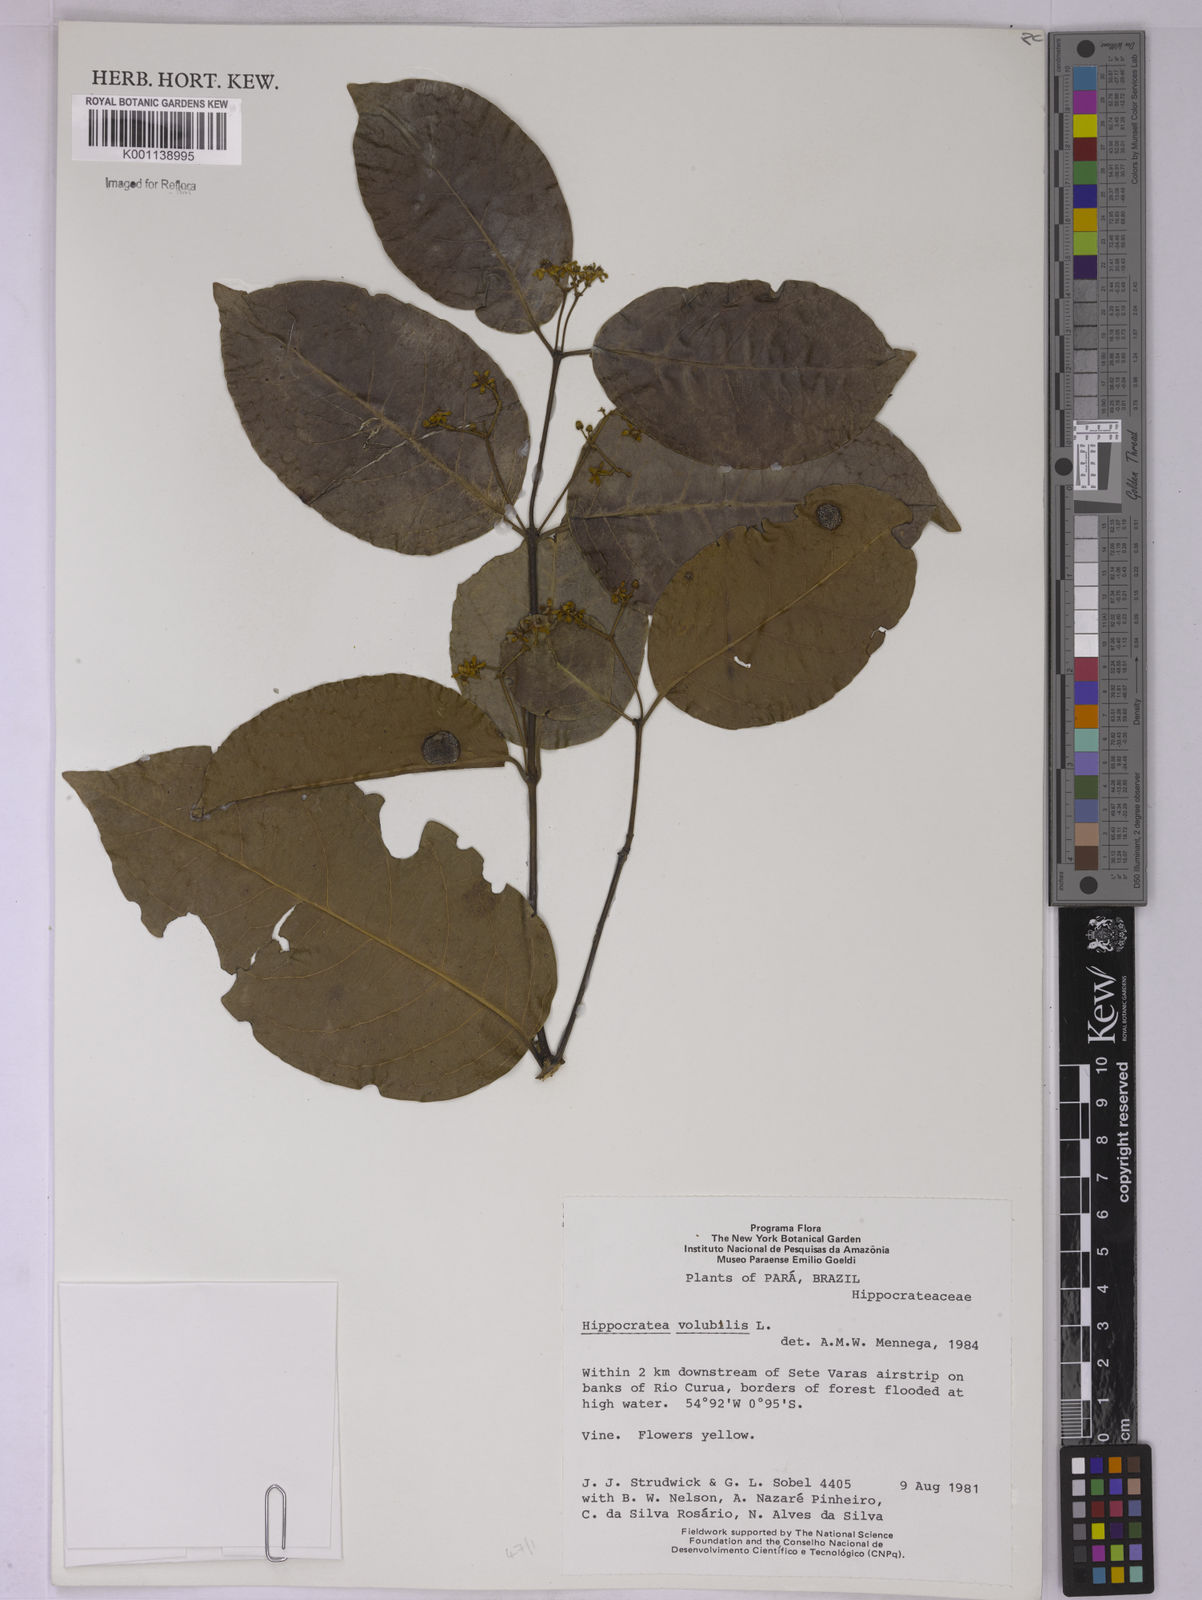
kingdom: Plantae
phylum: Tracheophyta
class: Magnoliopsida
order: Celastrales
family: Celastraceae
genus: Hippocratea
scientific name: Hippocratea volubilis
